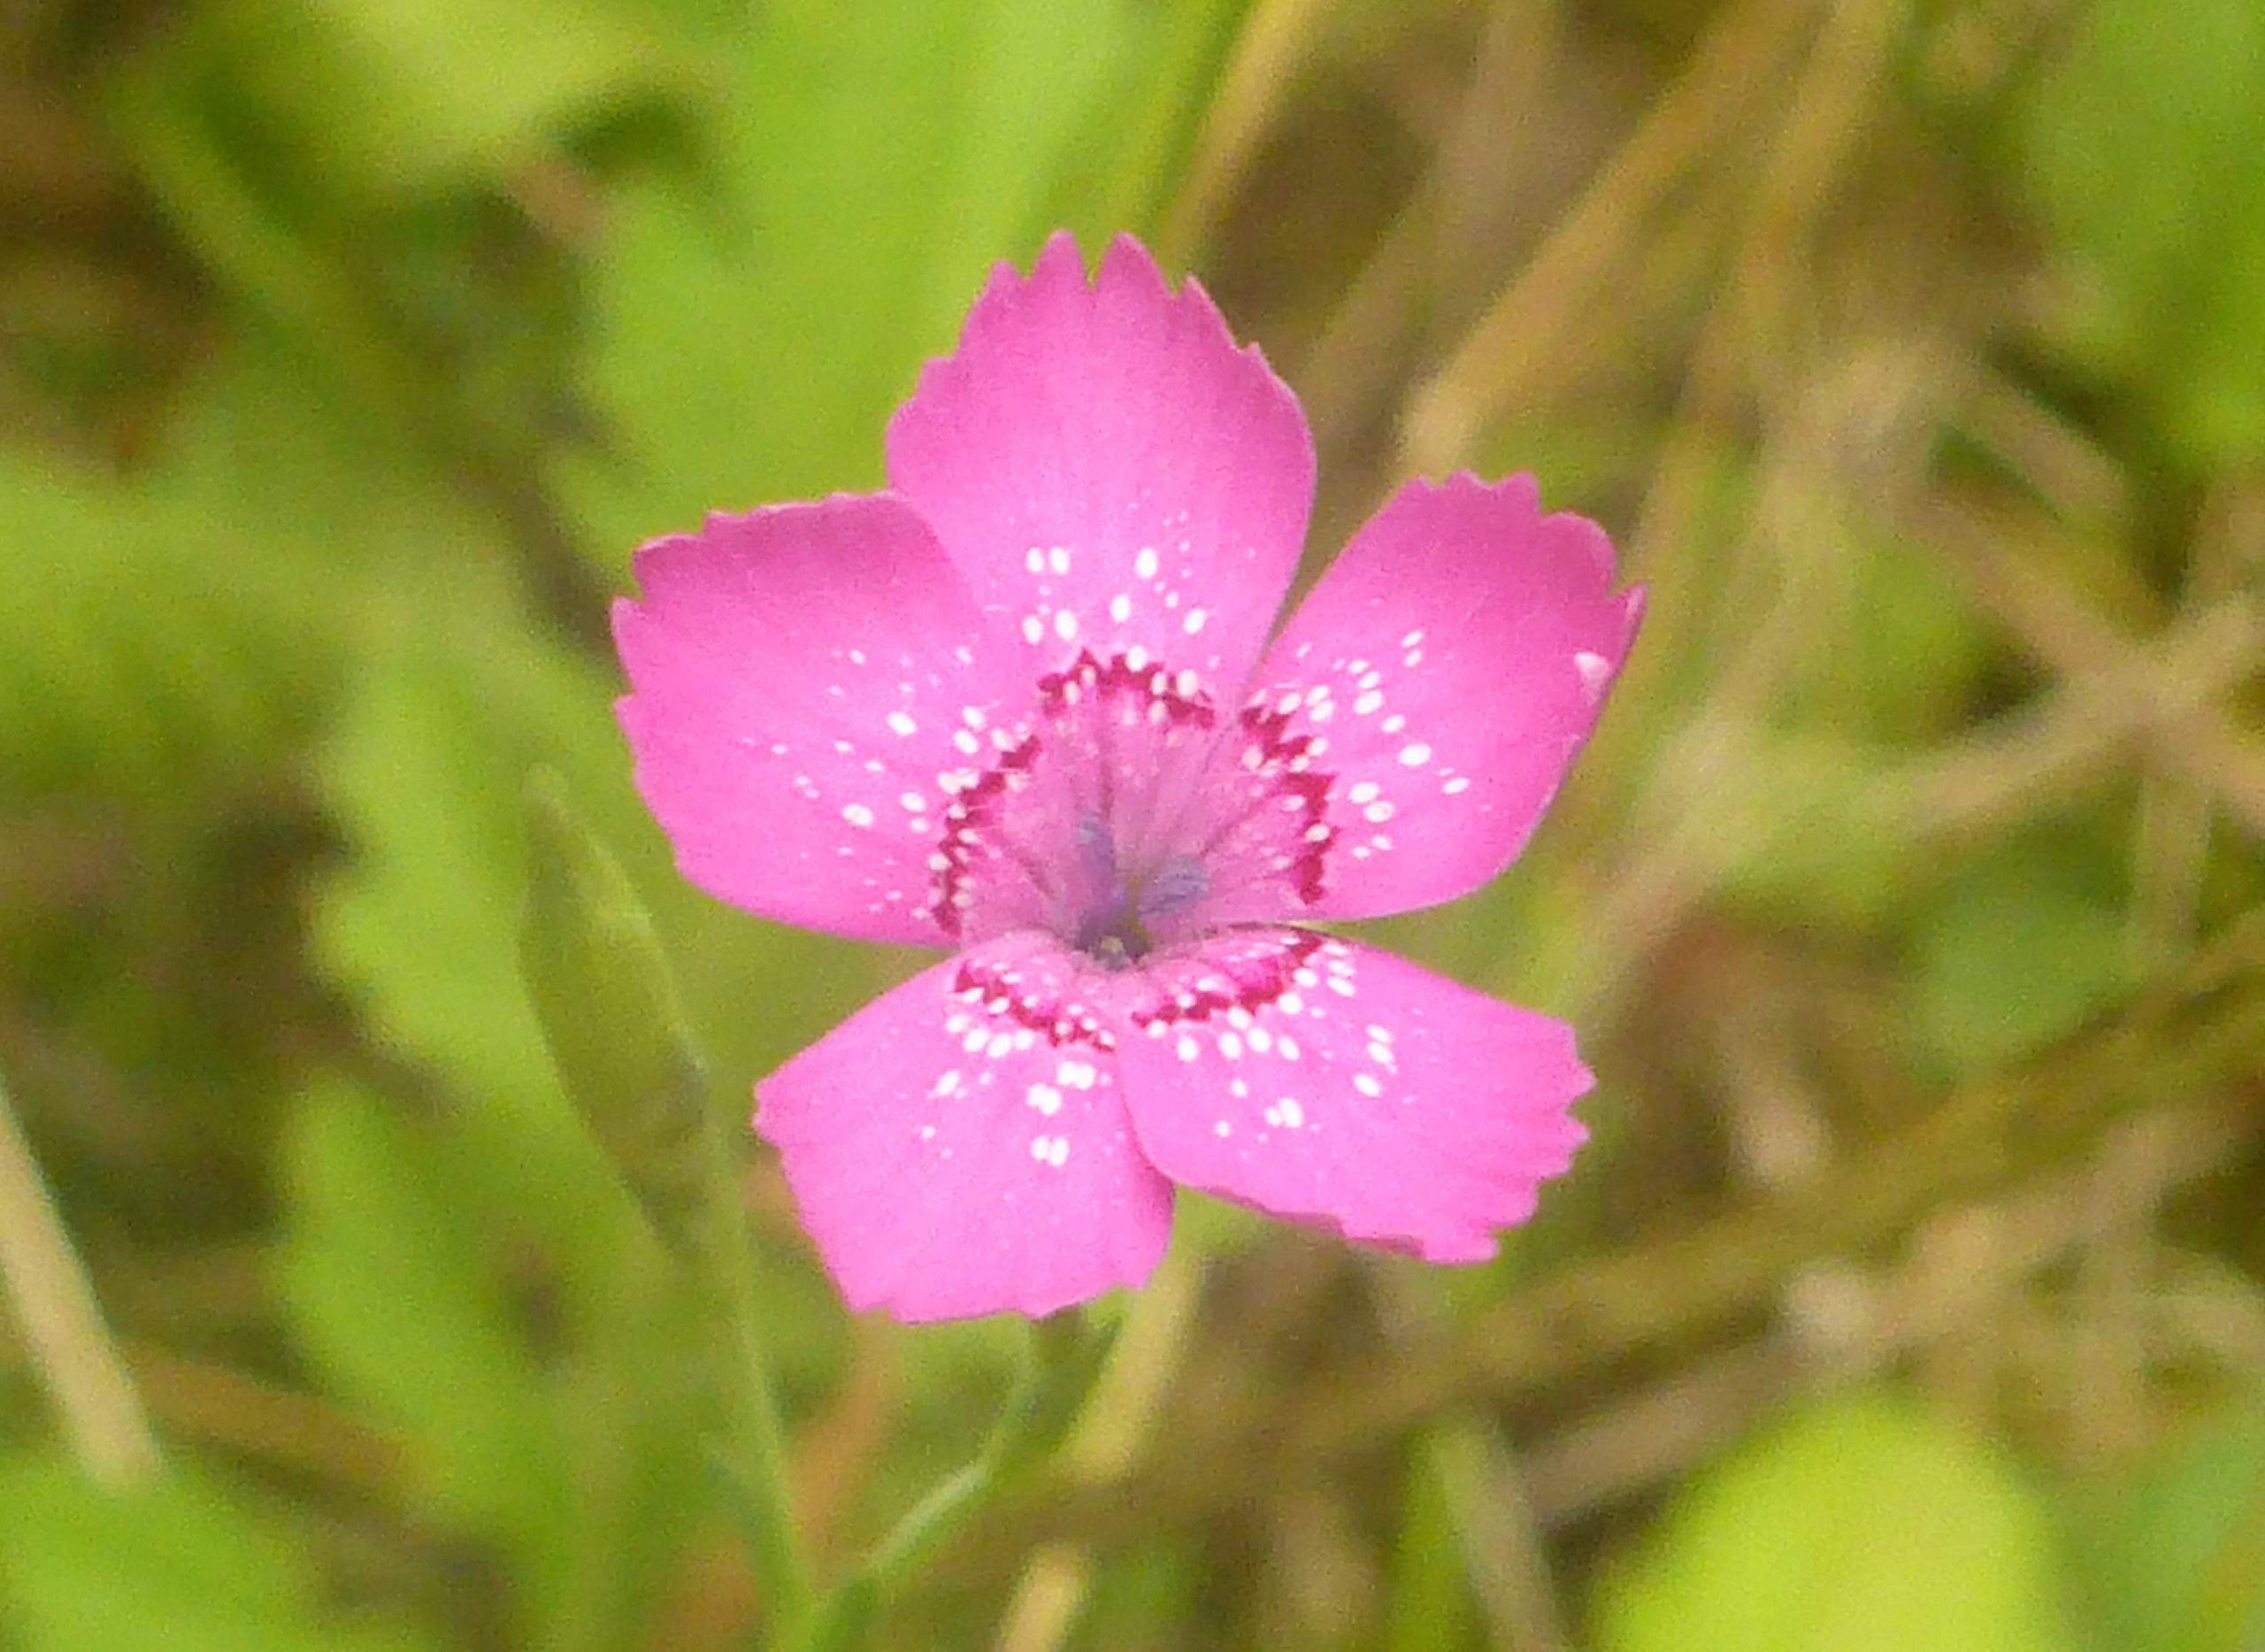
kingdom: Plantae
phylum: Tracheophyta
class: Magnoliopsida
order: Caryophyllales
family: Caryophyllaceae
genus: Dianthus
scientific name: Dianthus deltoides
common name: Bakke-nellike
